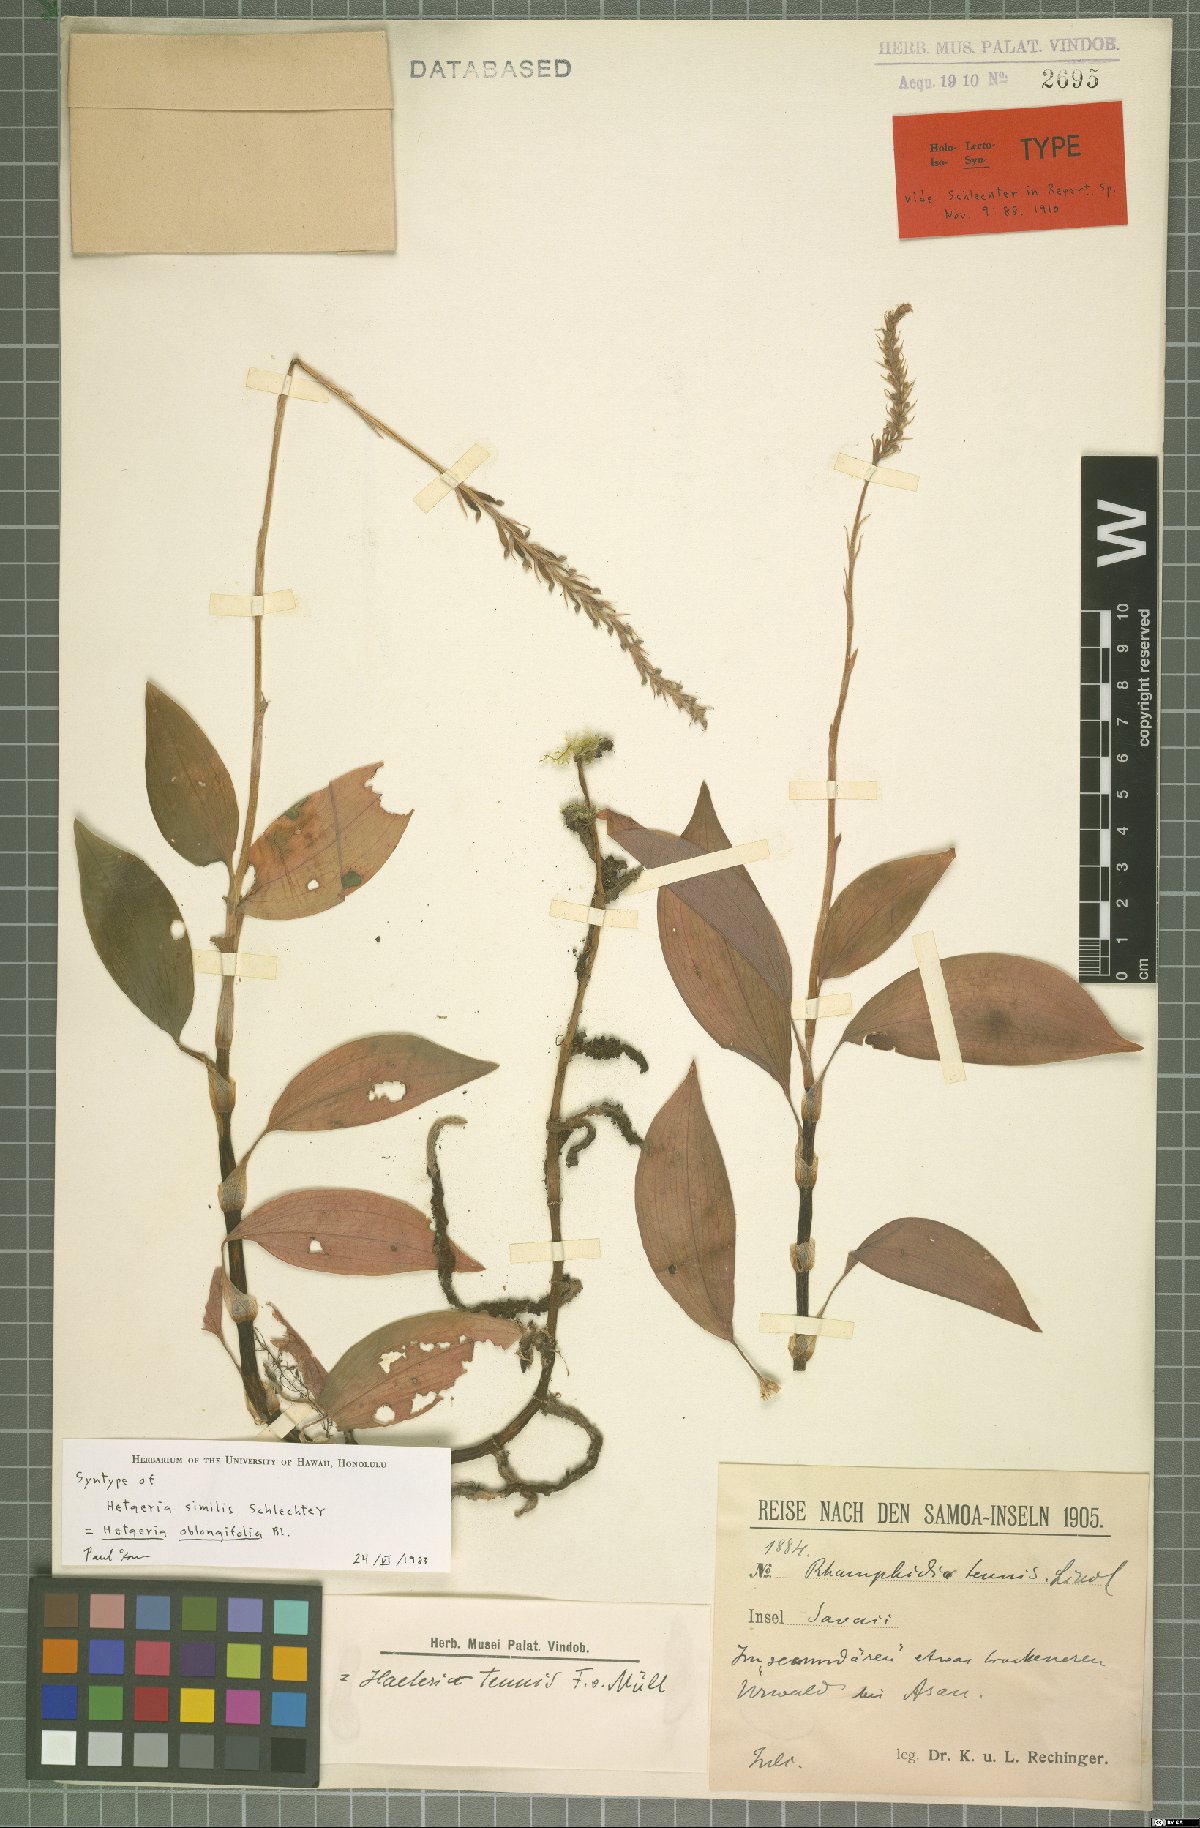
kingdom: Plantae
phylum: Tracheophyta
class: Liliopsida
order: Asparagales
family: Orchidaceae
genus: Hetaeria
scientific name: Hetaeria oblongifolia
